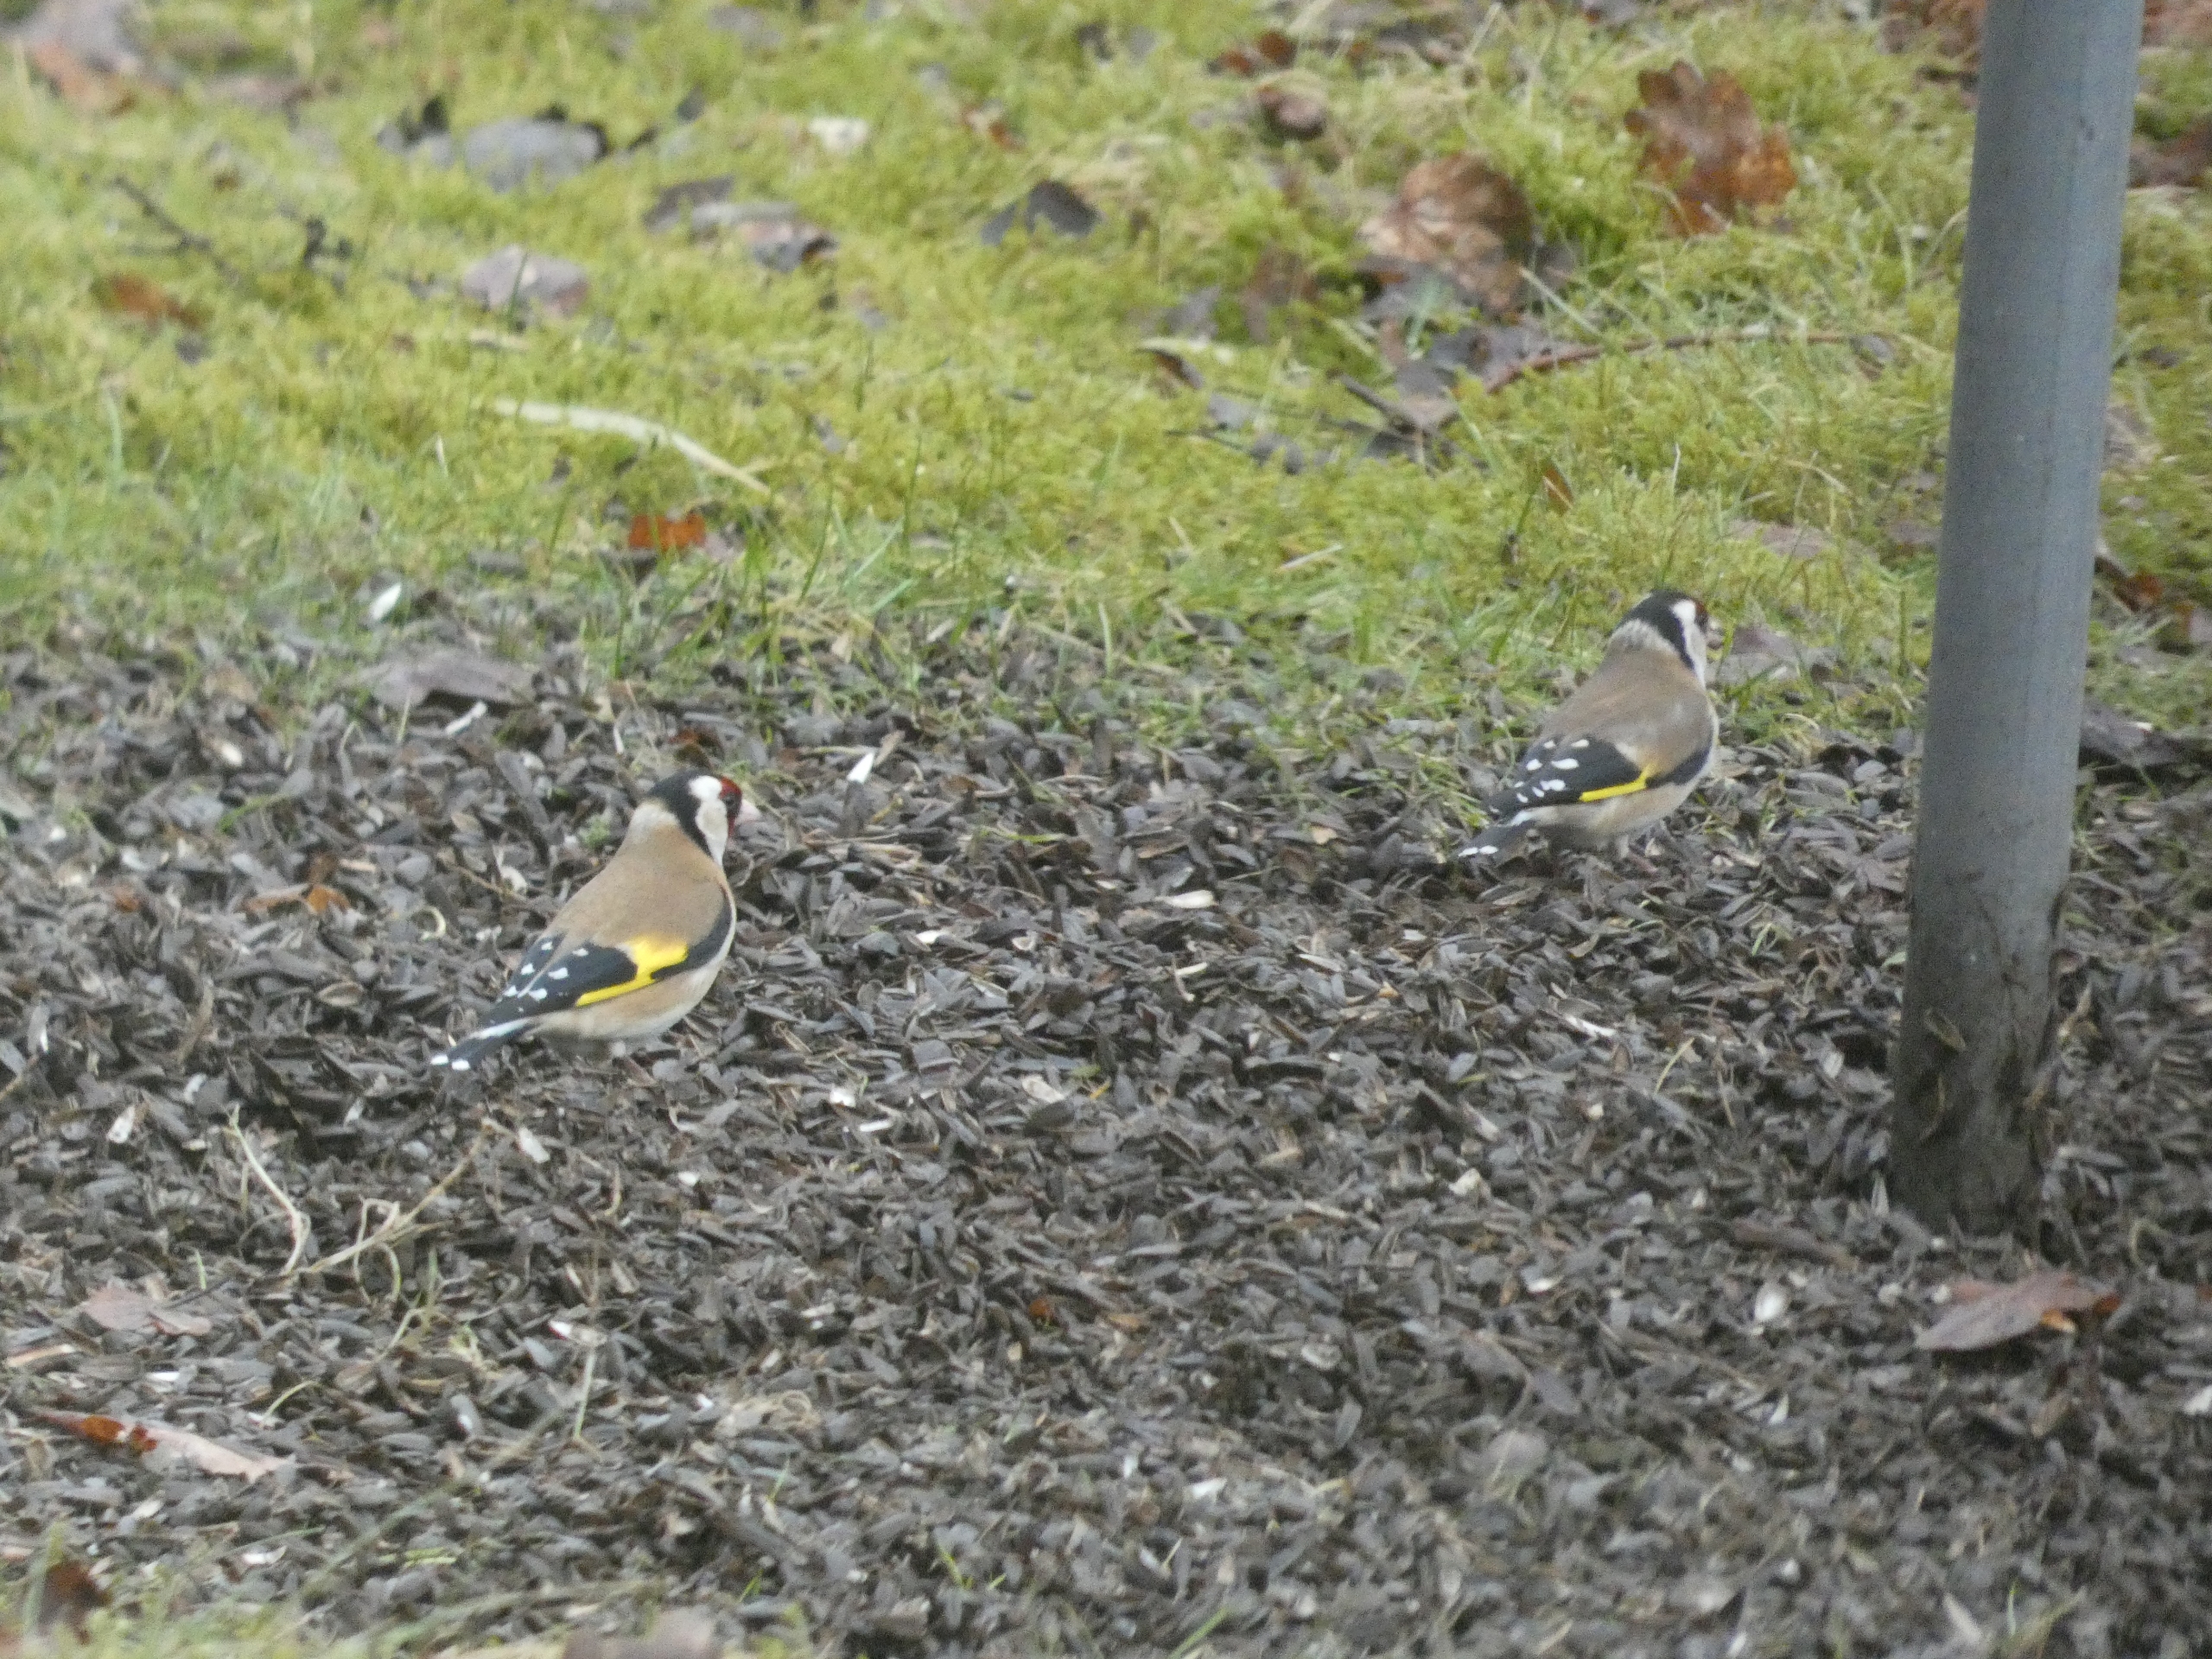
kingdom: Animalia
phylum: Chordata
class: Aves
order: Passeriformes
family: Fringillidae
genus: Carduelis
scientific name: Carduelis carduelis
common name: Stillits
